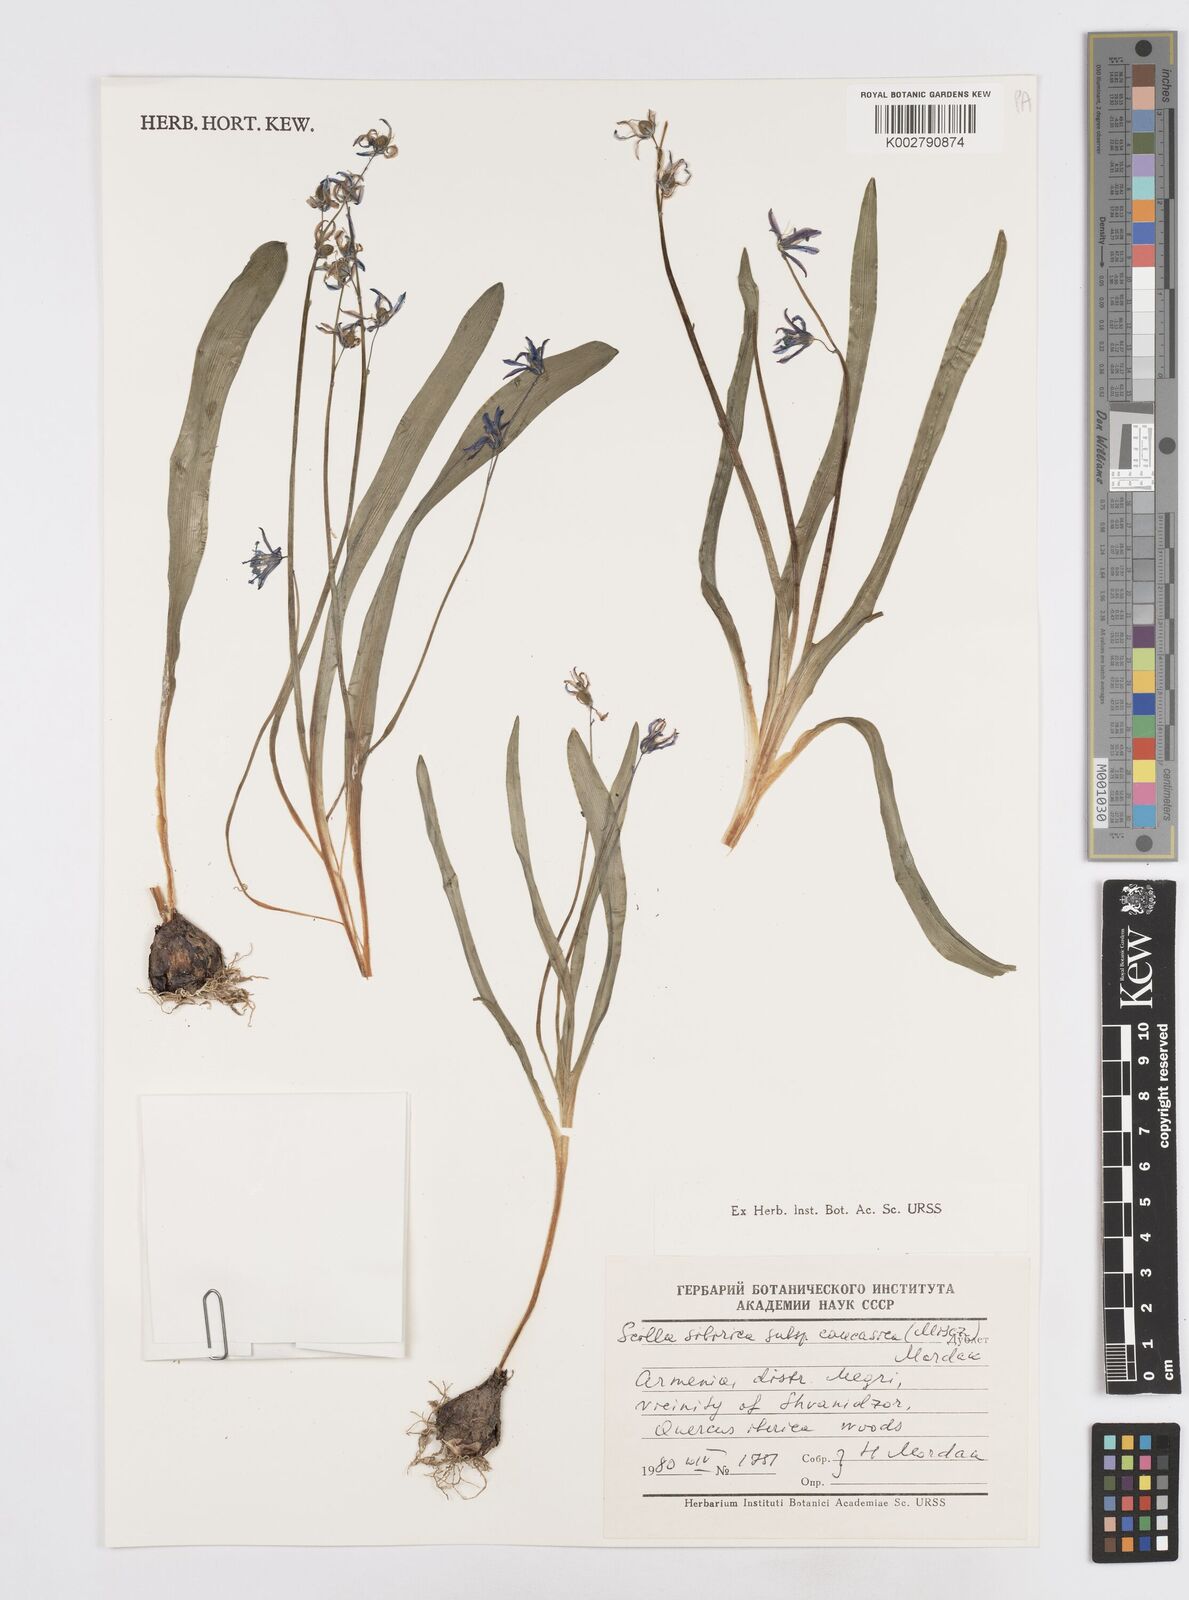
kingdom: Plantae
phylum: Tracheophyta
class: Liliopsida
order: Asparagales
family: Asparagaceae
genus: Scilla
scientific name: Scilla siberica
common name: Siberian squill
